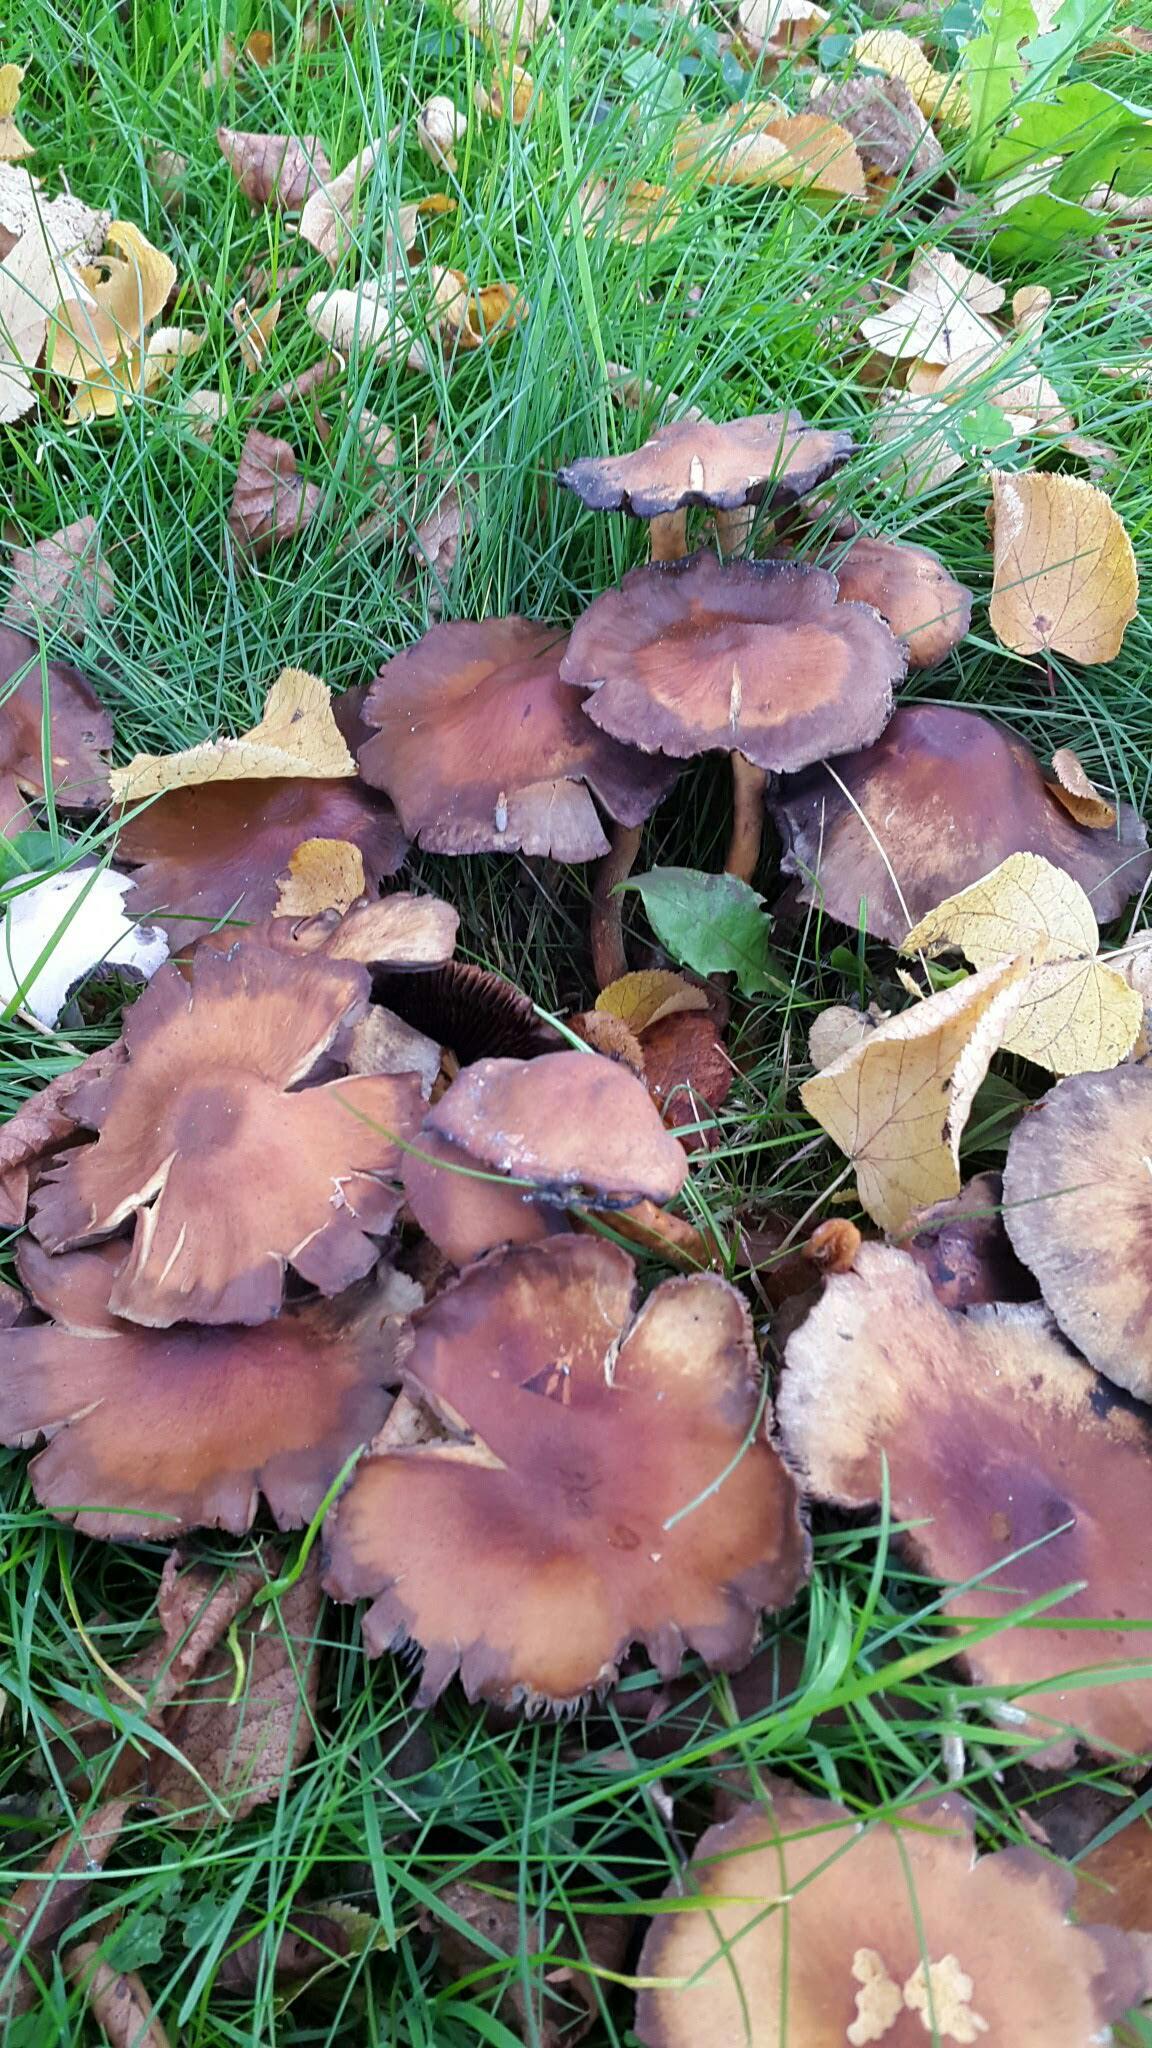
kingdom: Fungi
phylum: Basidiomycota
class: Agaricomycetes
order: Agaricales
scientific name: Agaricales
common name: champignonordenen
